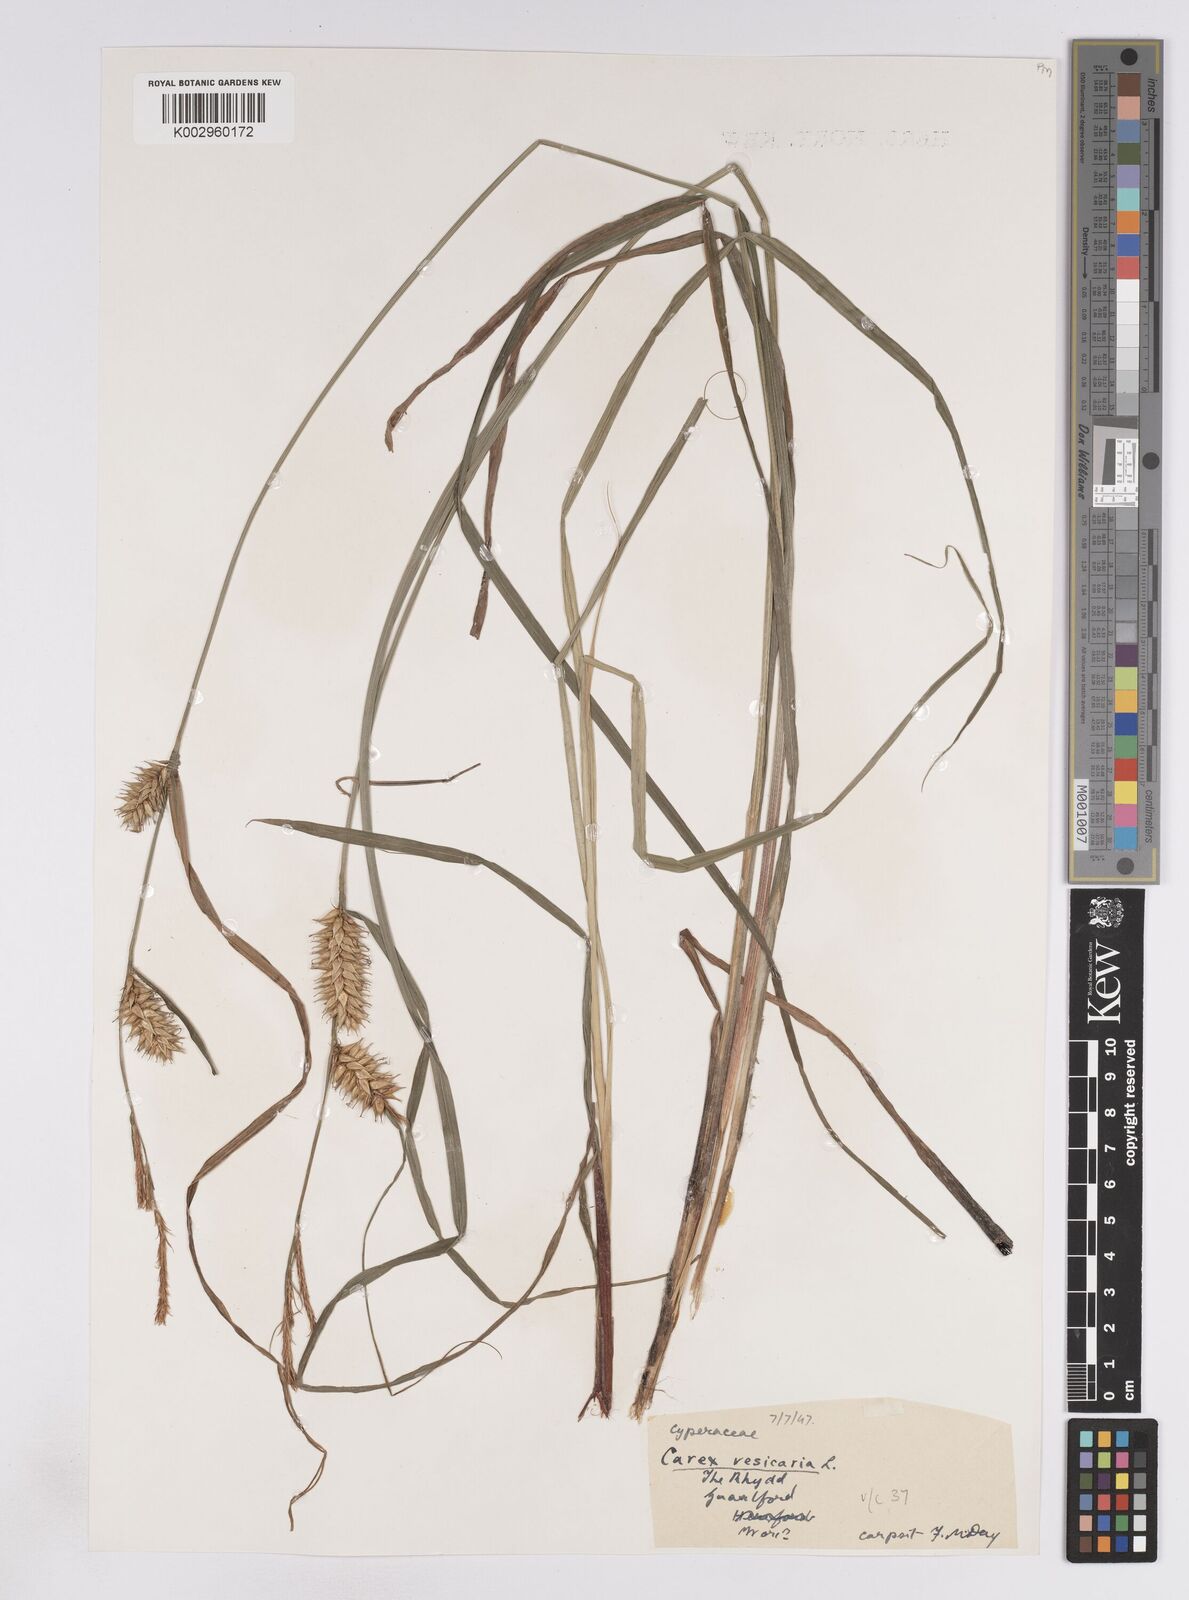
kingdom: Plantae
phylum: Tracheophyta
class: Liliopsida
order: Poales
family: Cyperaceae
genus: Carex
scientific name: Carex vesicaria
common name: Bladder-sedge
